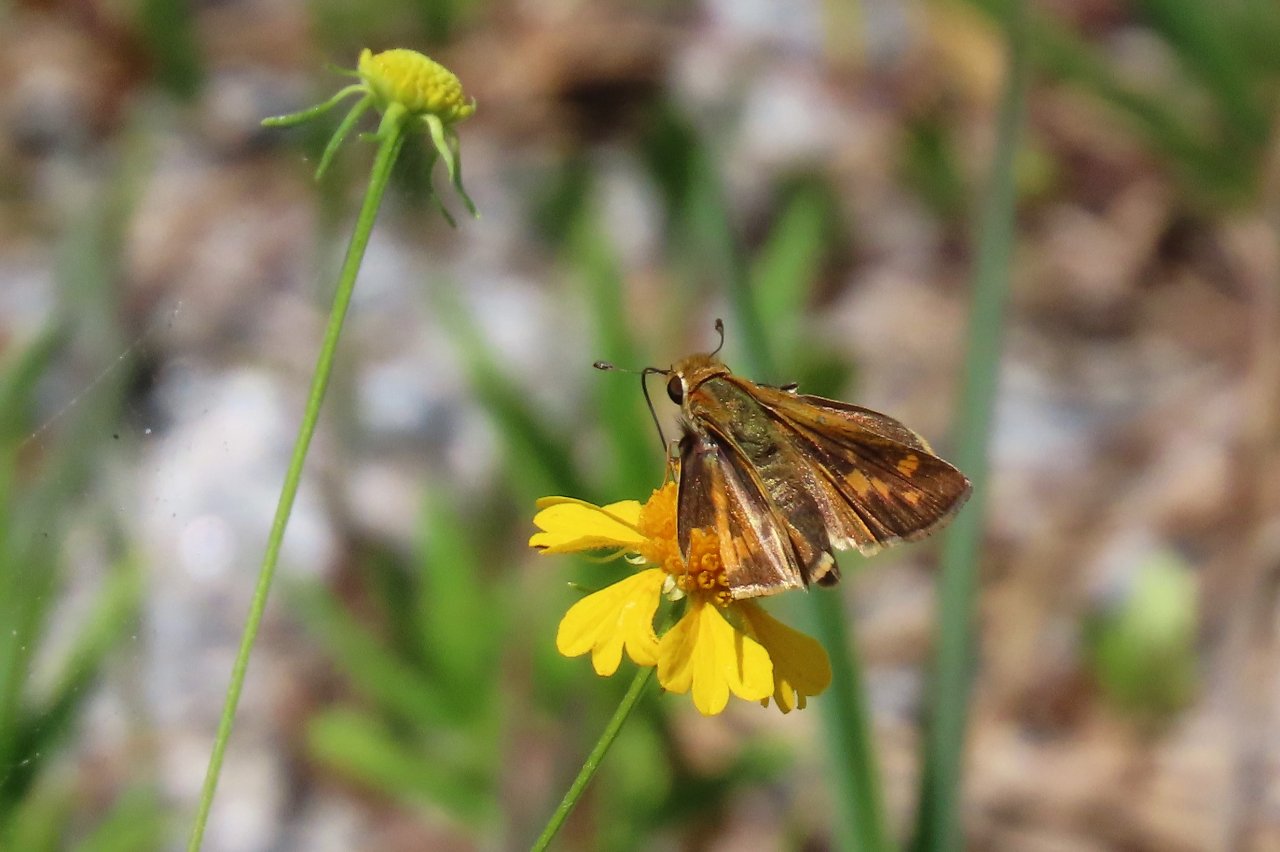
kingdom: Animalia
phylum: Arthropoda
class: Insecta
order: Lepidoptera
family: Hesperiidae
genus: Hylephila
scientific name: Hylephila phyleus
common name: Fiery Skipper
